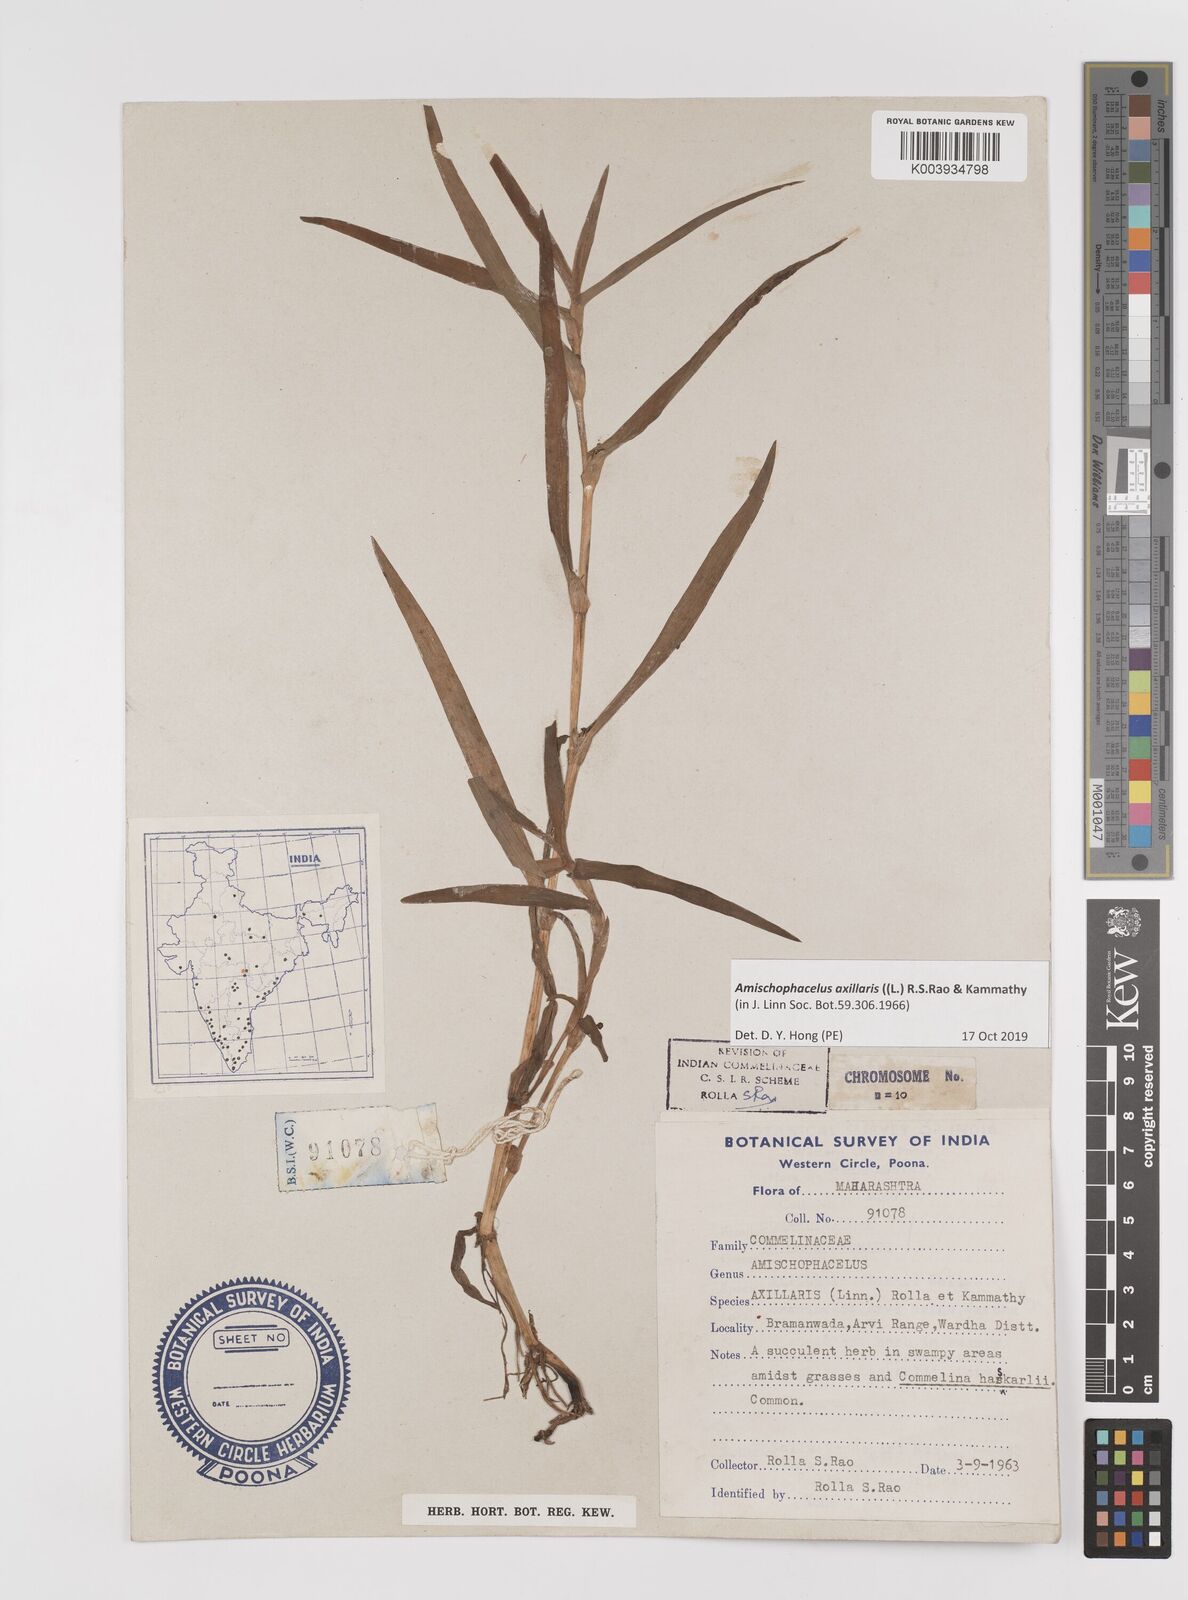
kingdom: Plantae
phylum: Tracheophyta
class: Liliopsida
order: Commelinales
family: Commelinaceae
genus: Cyanotis
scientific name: Cyanotis axillaris
